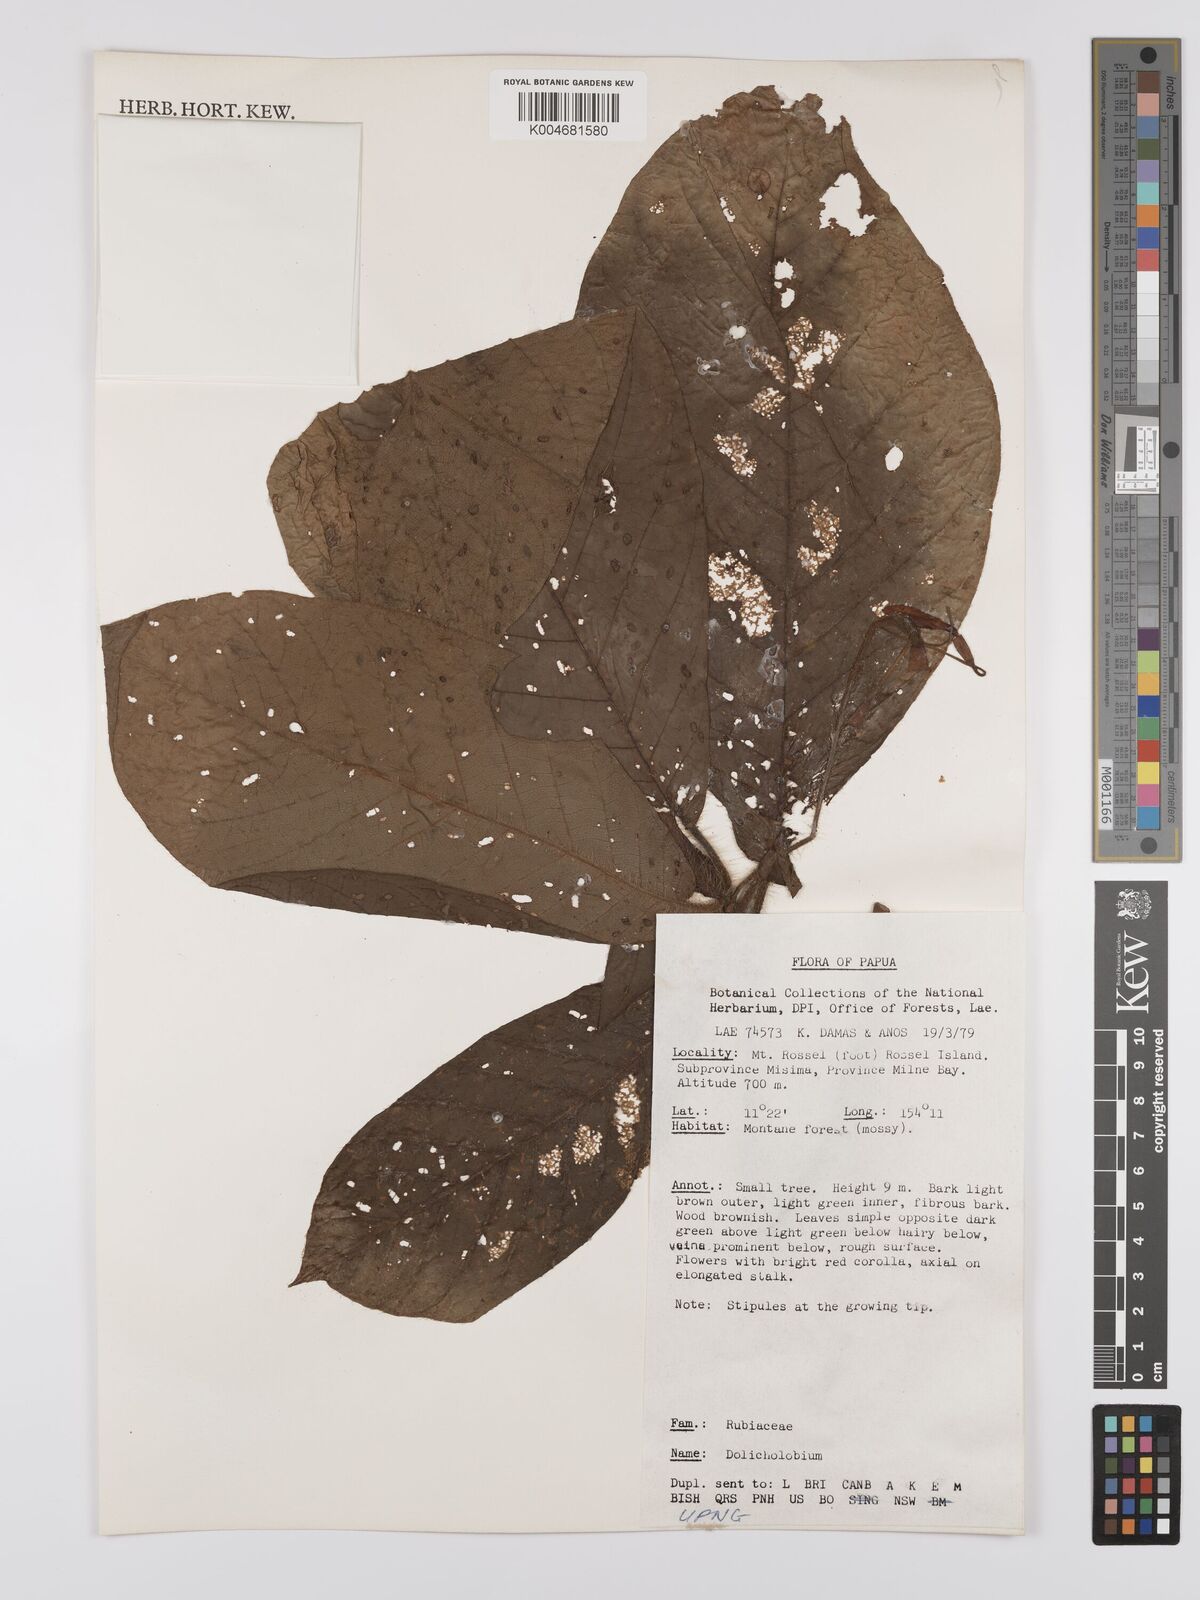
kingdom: Plantae
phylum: Tracheophyta
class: Magnoliopsida
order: Gentianales
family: Rubiaceae
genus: Dolicholobium
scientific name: Dolicholobium
